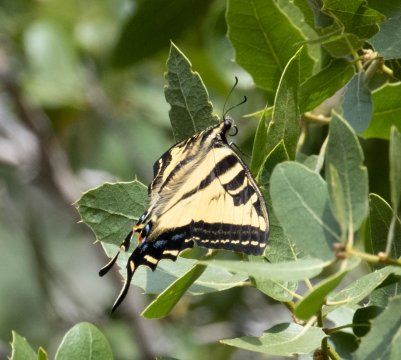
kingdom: Animalia
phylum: Arthropoda
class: Insecta
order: Lepidoptera
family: Papilionidae
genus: Pterourus
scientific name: Pterourus rutulus
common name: Western Tiger Swallowtail
